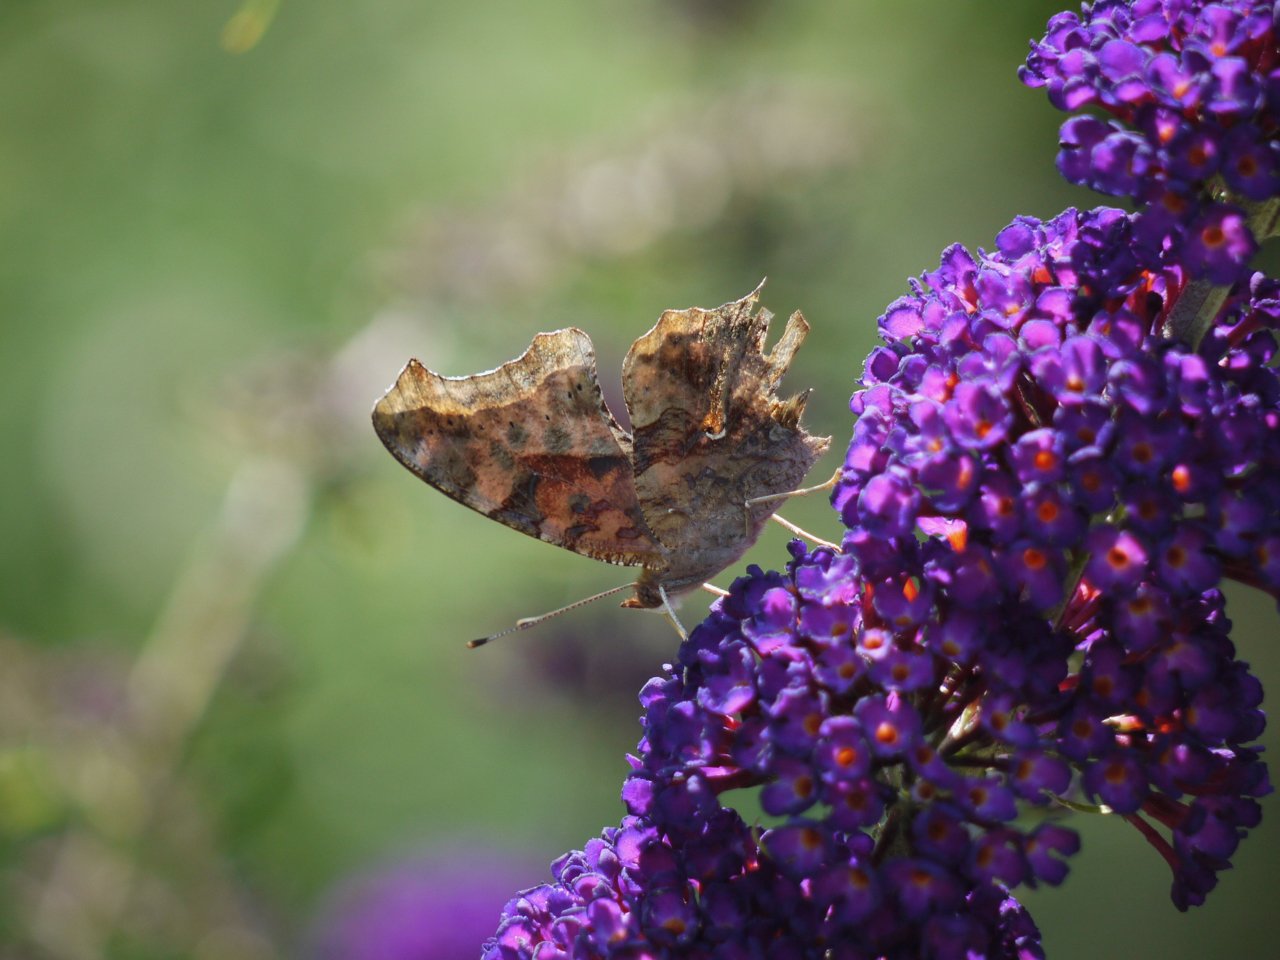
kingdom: Animalia
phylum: Arthropoda
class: Insecta
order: Lepidoptera
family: Nymphalidae
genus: Polygonia
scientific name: Polygonia interrogationis
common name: Question Mark
